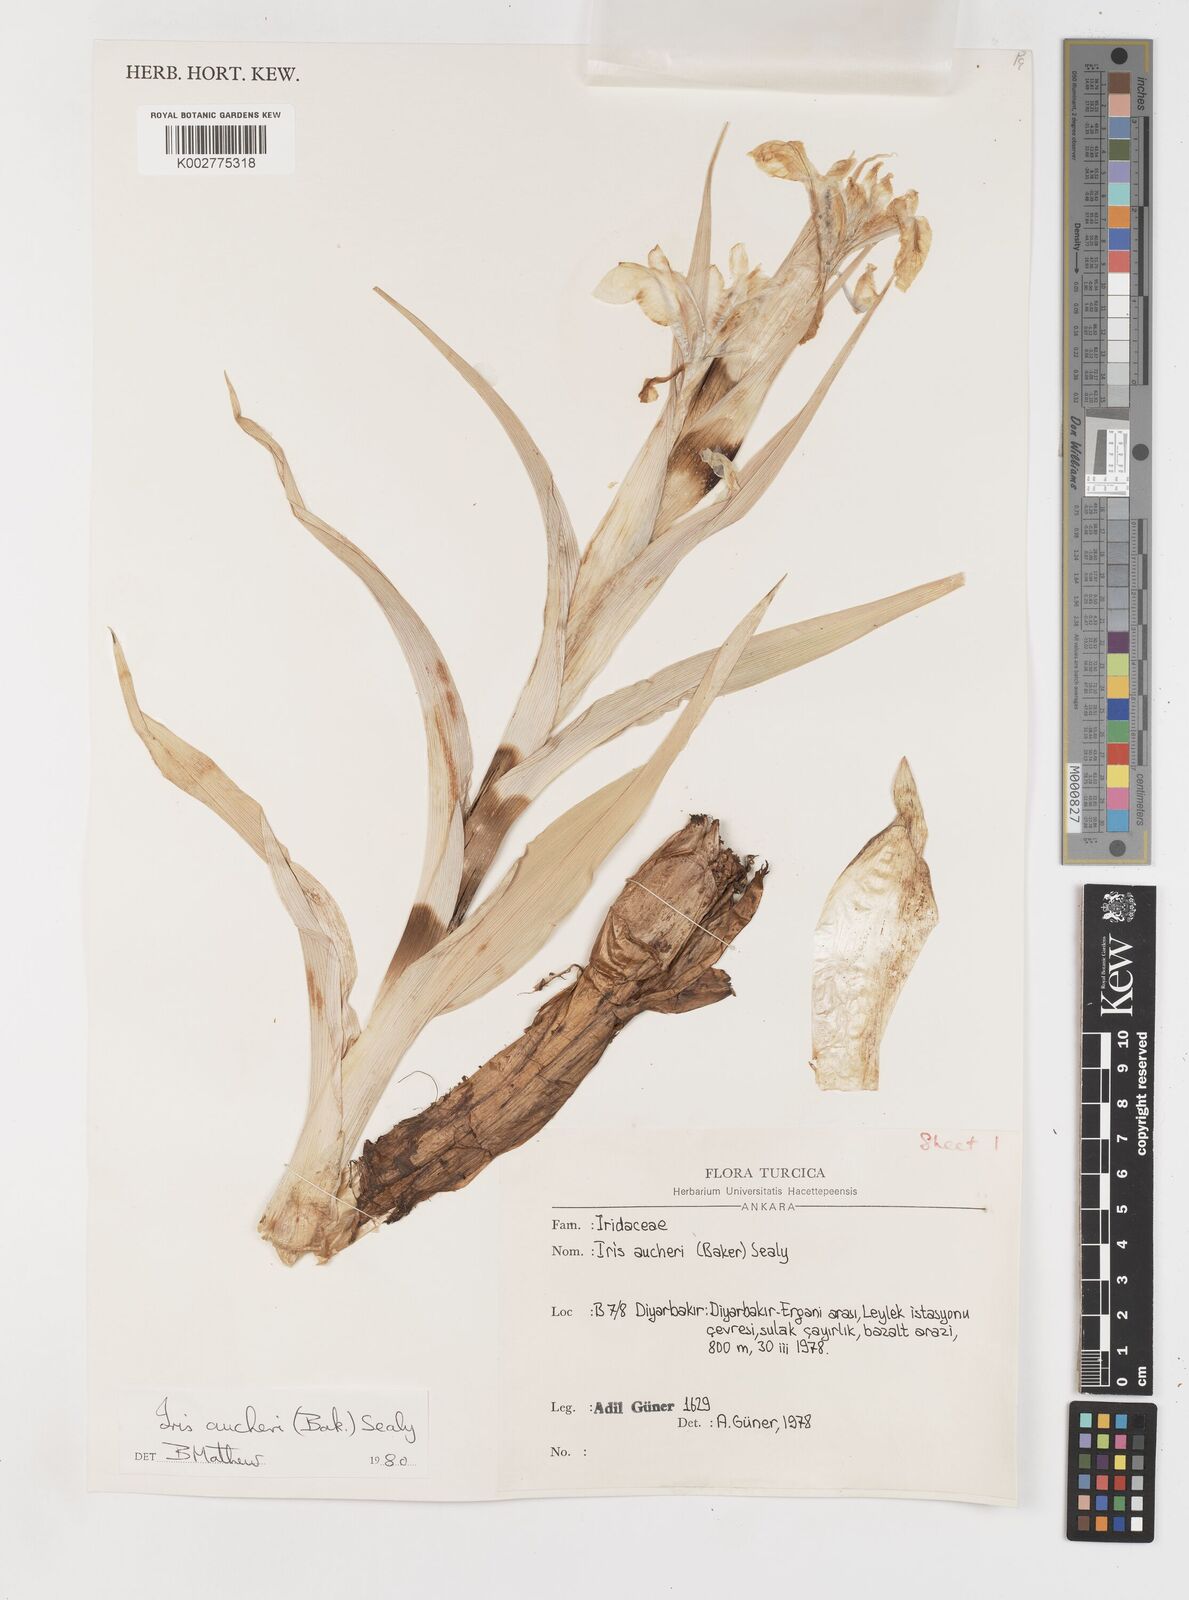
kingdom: Plantae
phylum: Tracheophyta
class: Liliopsida
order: Asparagales
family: Iridaceae
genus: Iris
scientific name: Iris aucheri
